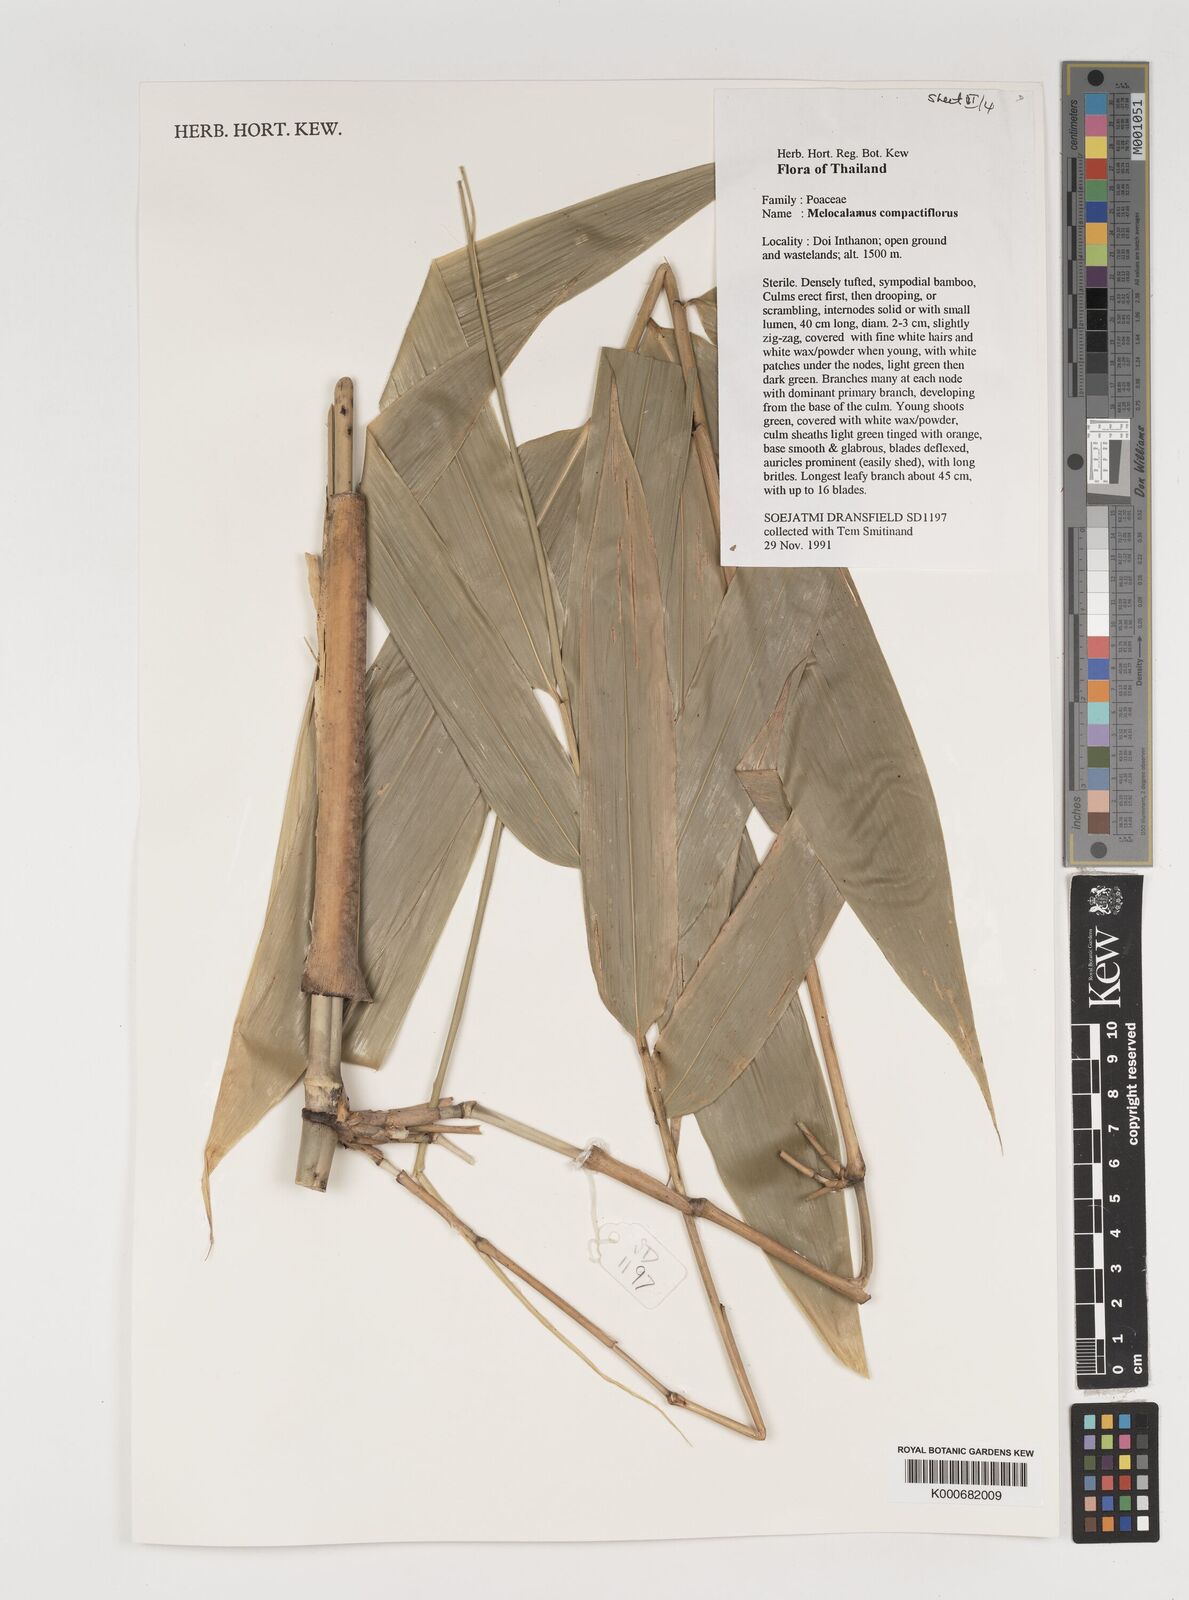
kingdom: Plantae
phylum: Tracheophyta
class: Liliopsida
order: Poales
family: Poaceae
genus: Melocalamus
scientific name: Melocalamus compactiflorus
